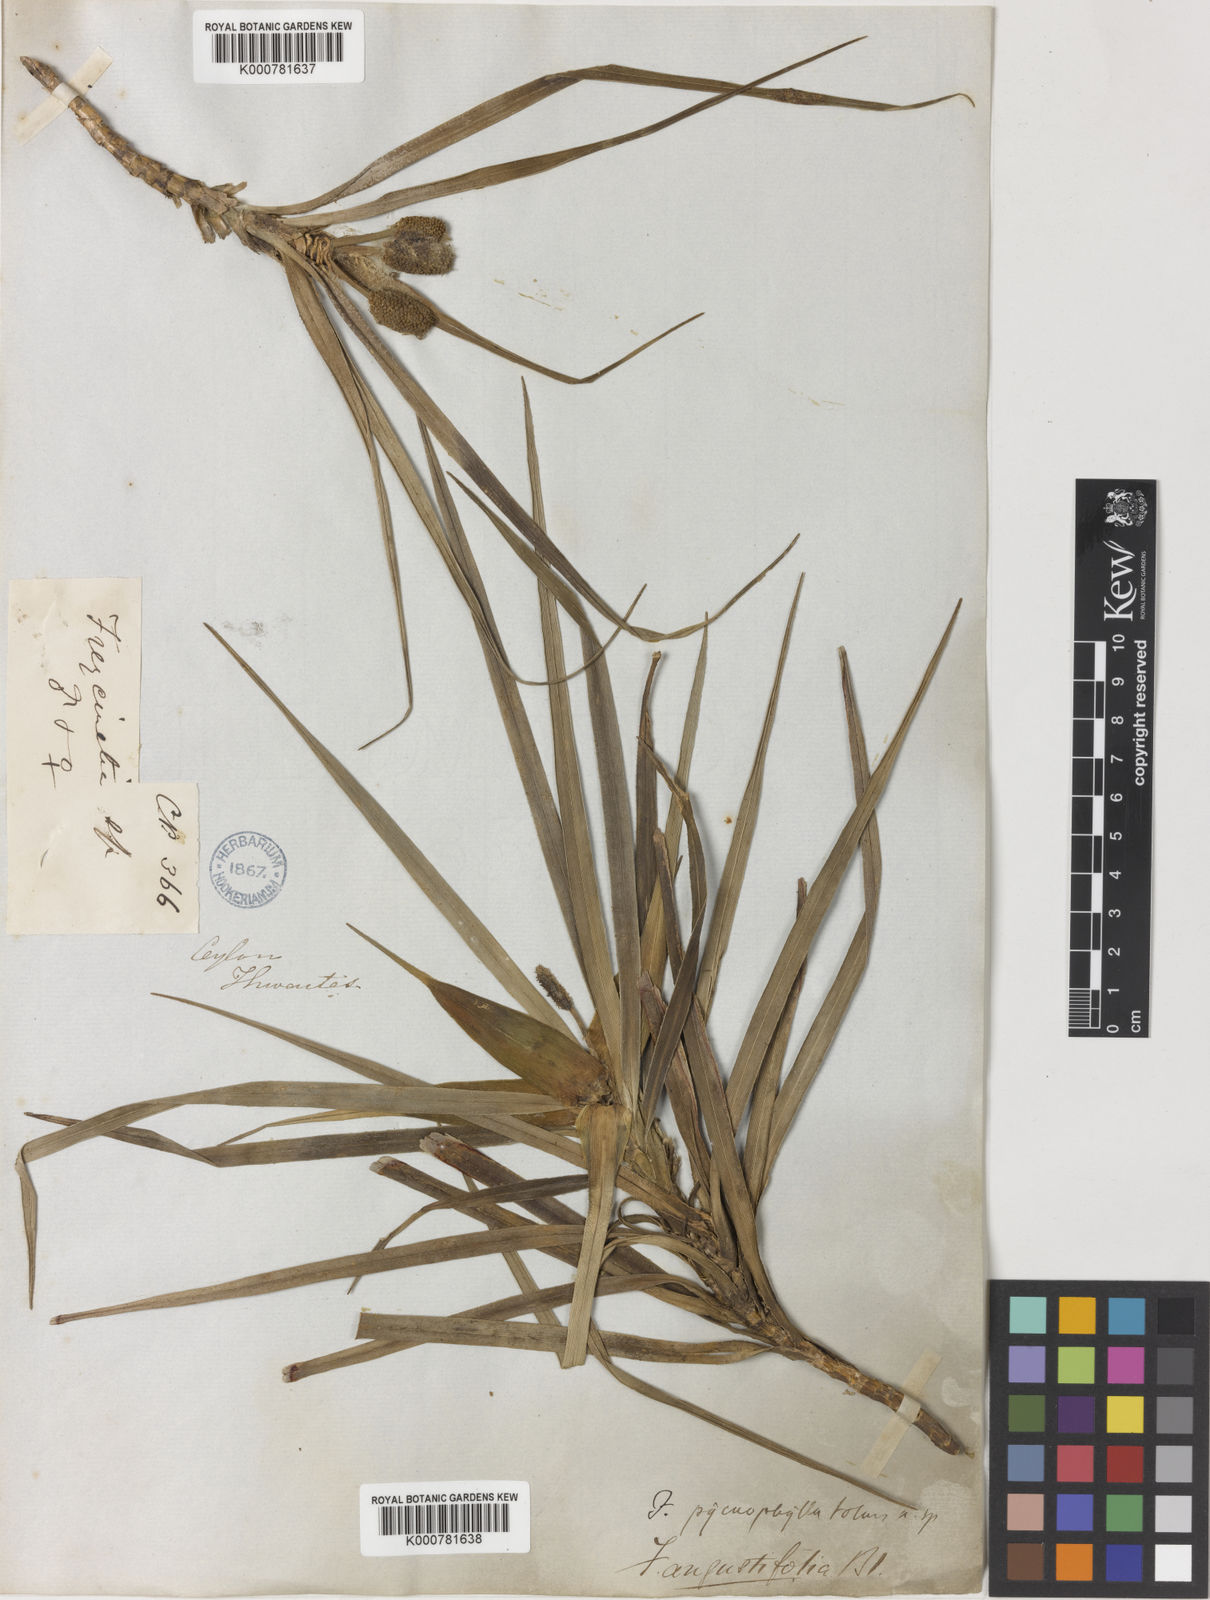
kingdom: Plantae
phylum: Tracheophyta
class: Liliopsida
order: Pandanales
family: Pandanaceae
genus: Freycinetia
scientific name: Freycinetia pycnophylla
